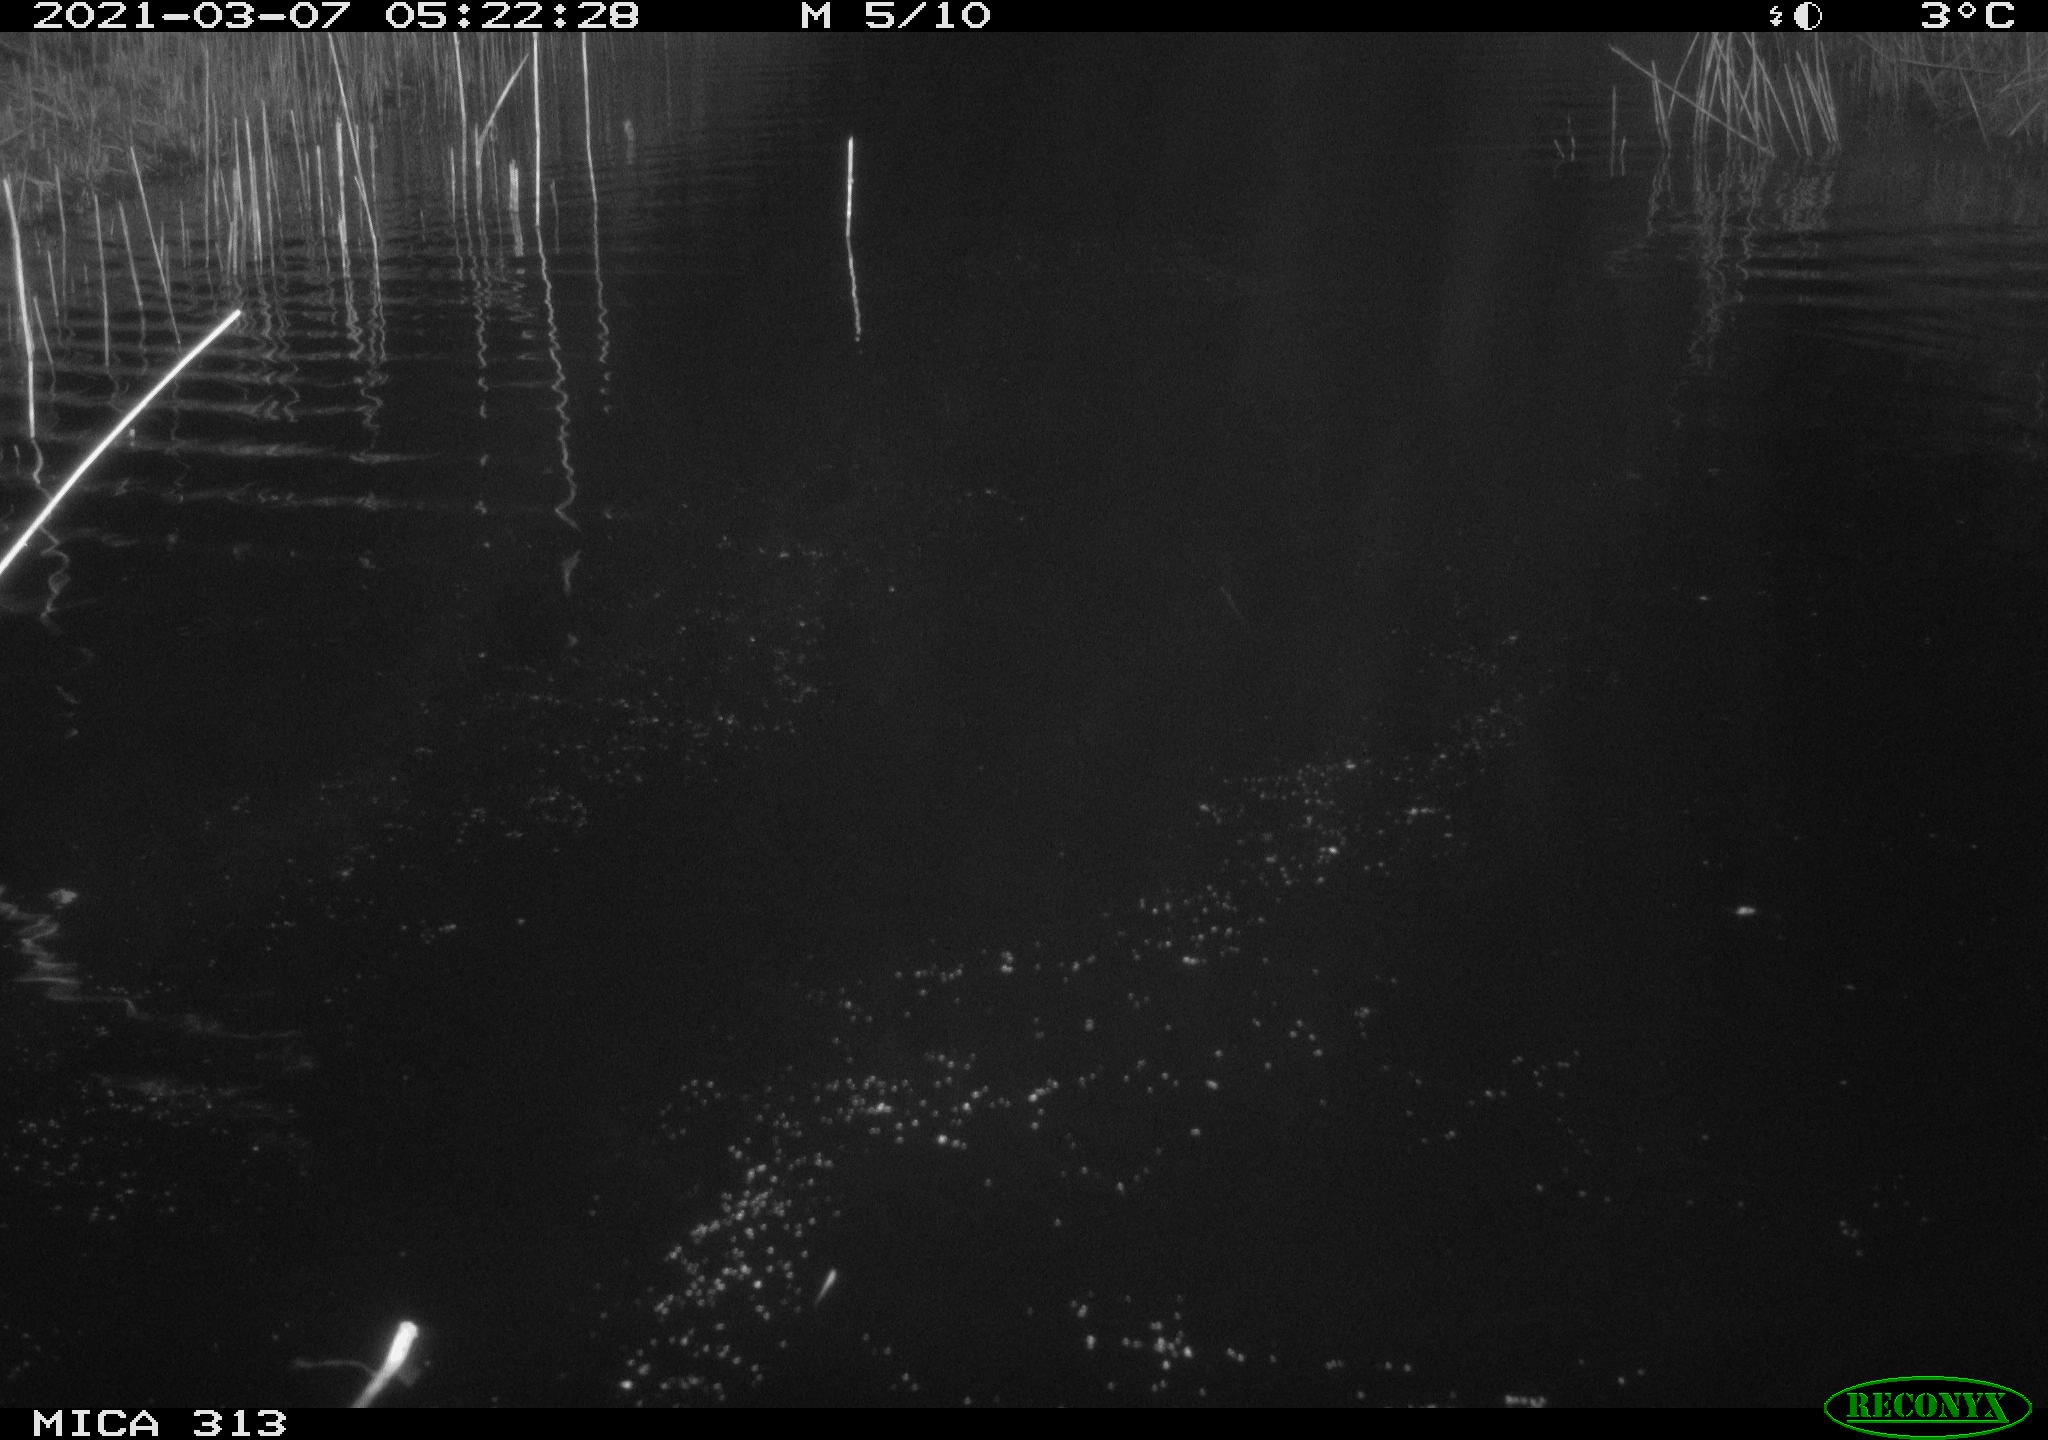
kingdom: Animalia
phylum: Chordata
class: Mammalia
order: Rodentia
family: Cricetidae
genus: Ondatra
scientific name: Ondatra zibethicus
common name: Muskrat
